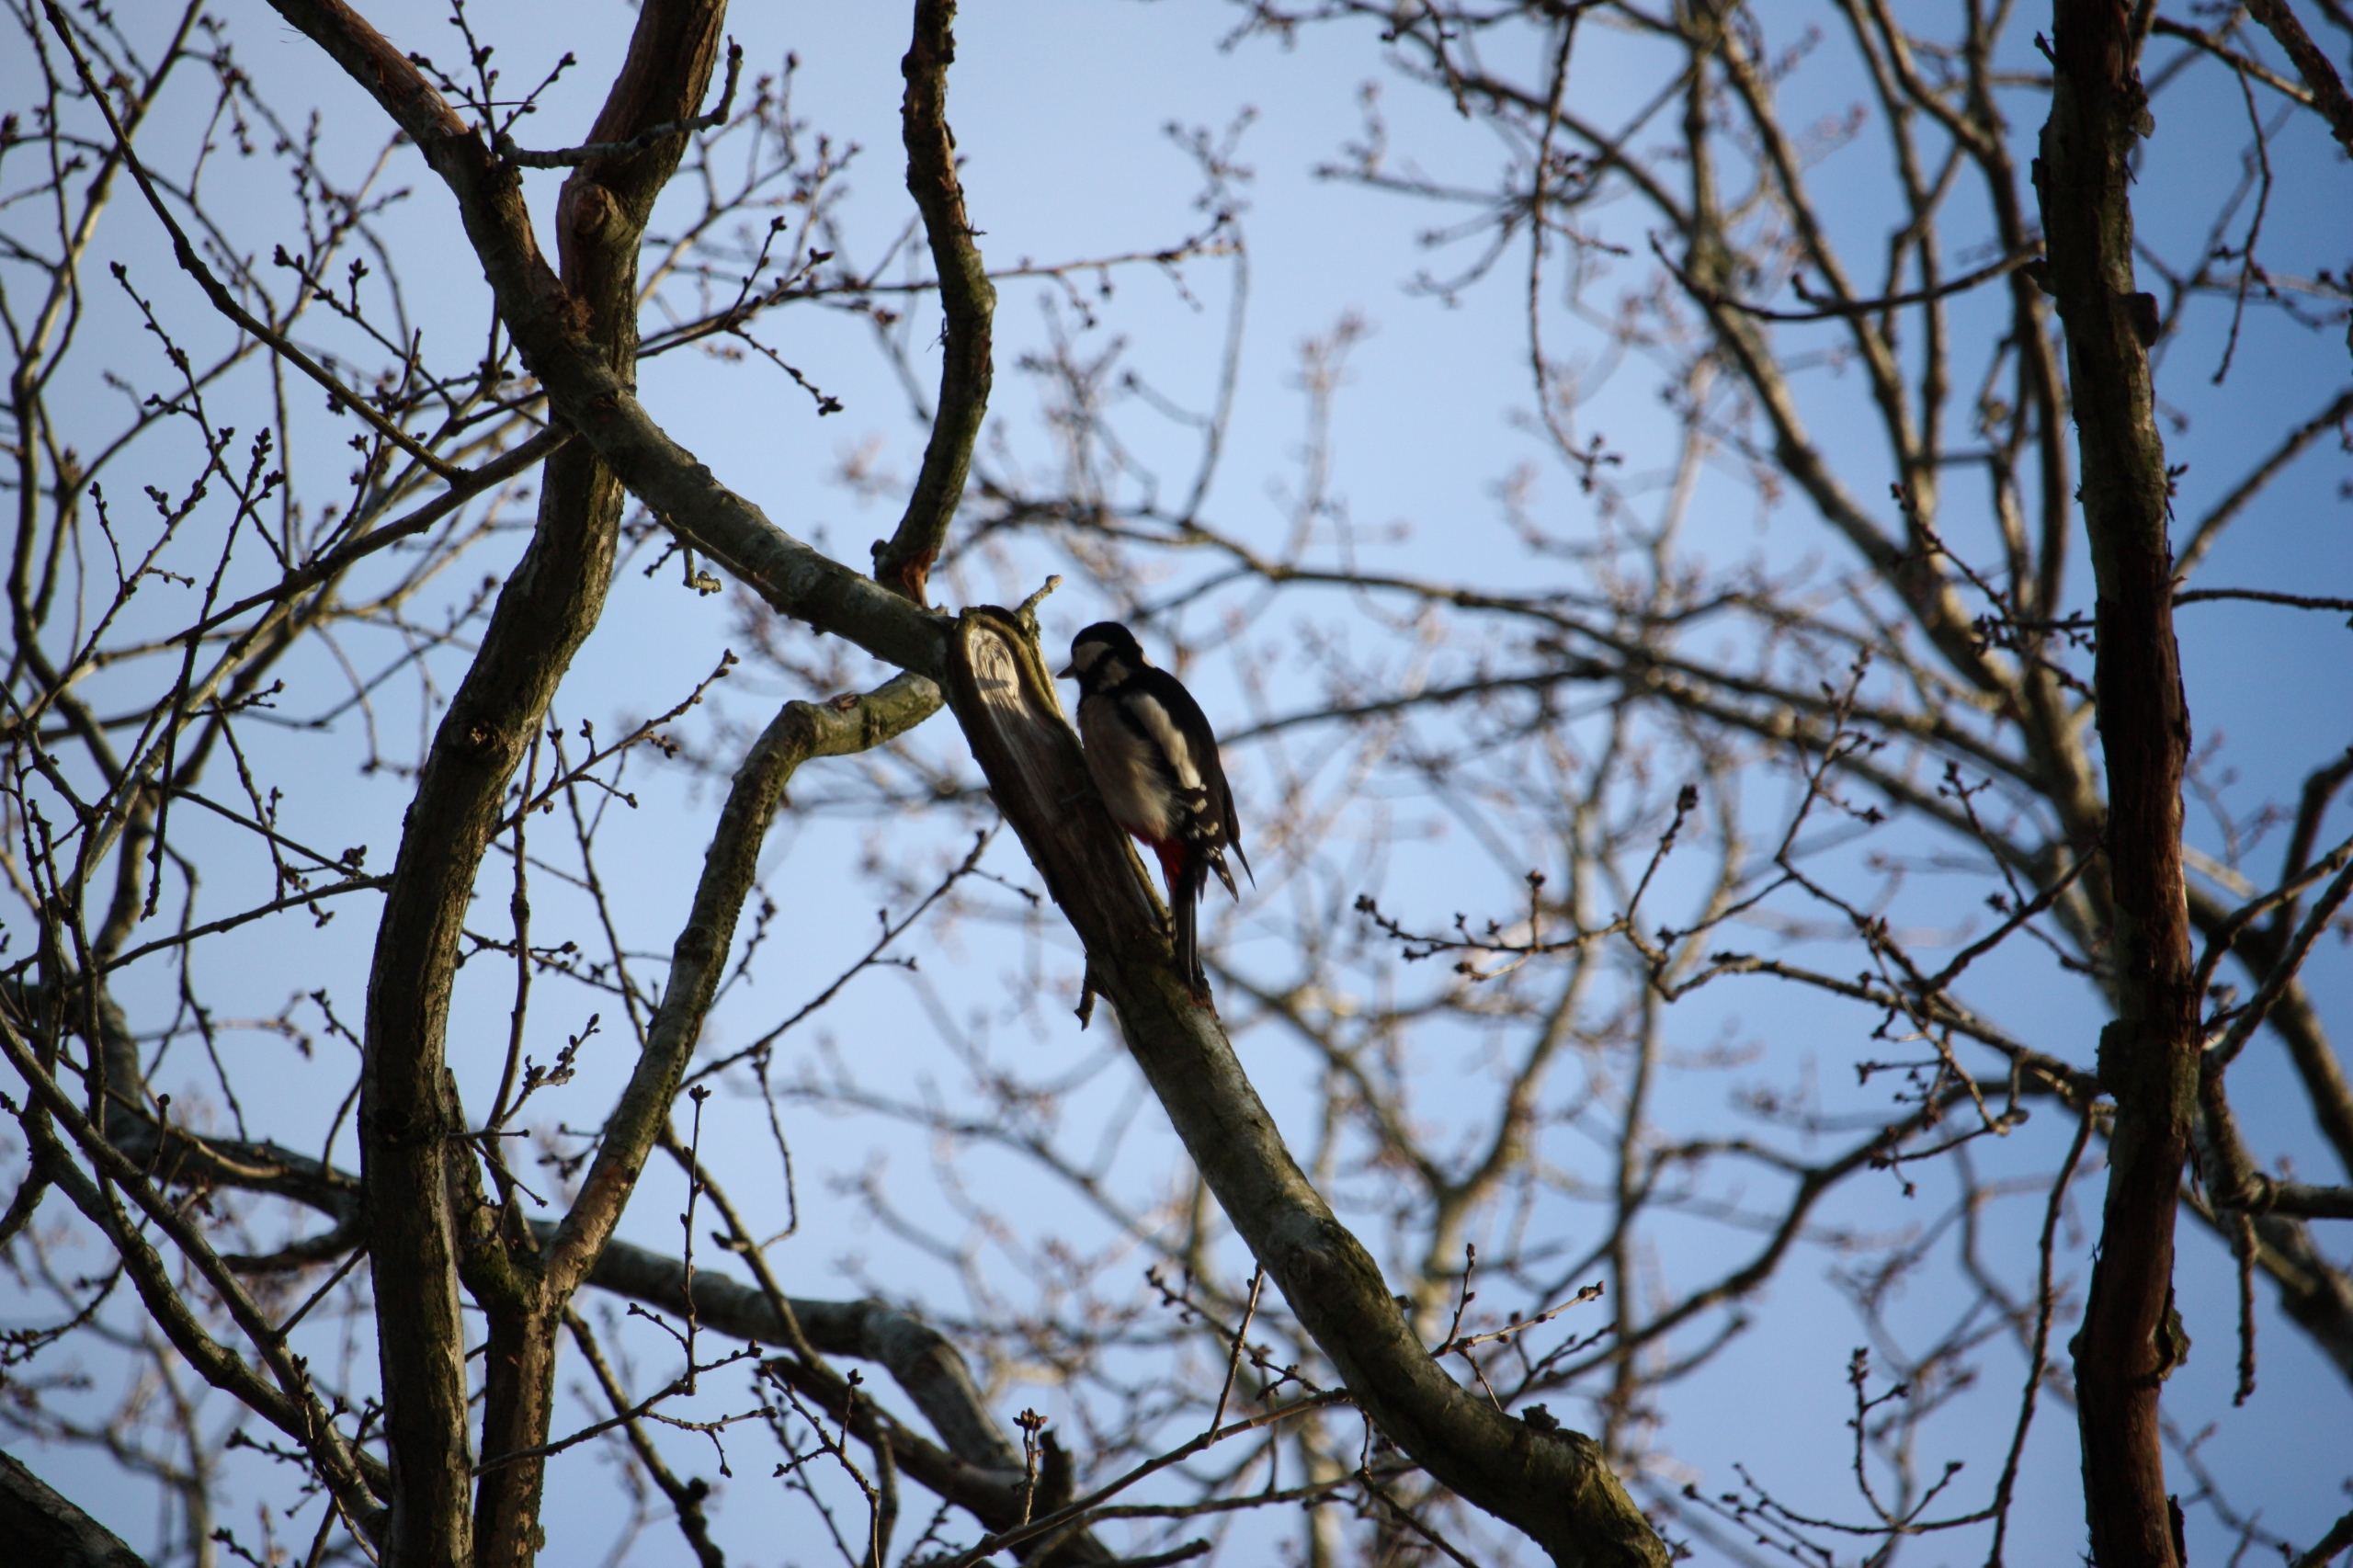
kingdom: Animalia
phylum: Chordata
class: Aves
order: Piciformes
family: Picidae
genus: Dendrocopos
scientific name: Dendrocopos major
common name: Stor flagspætte
